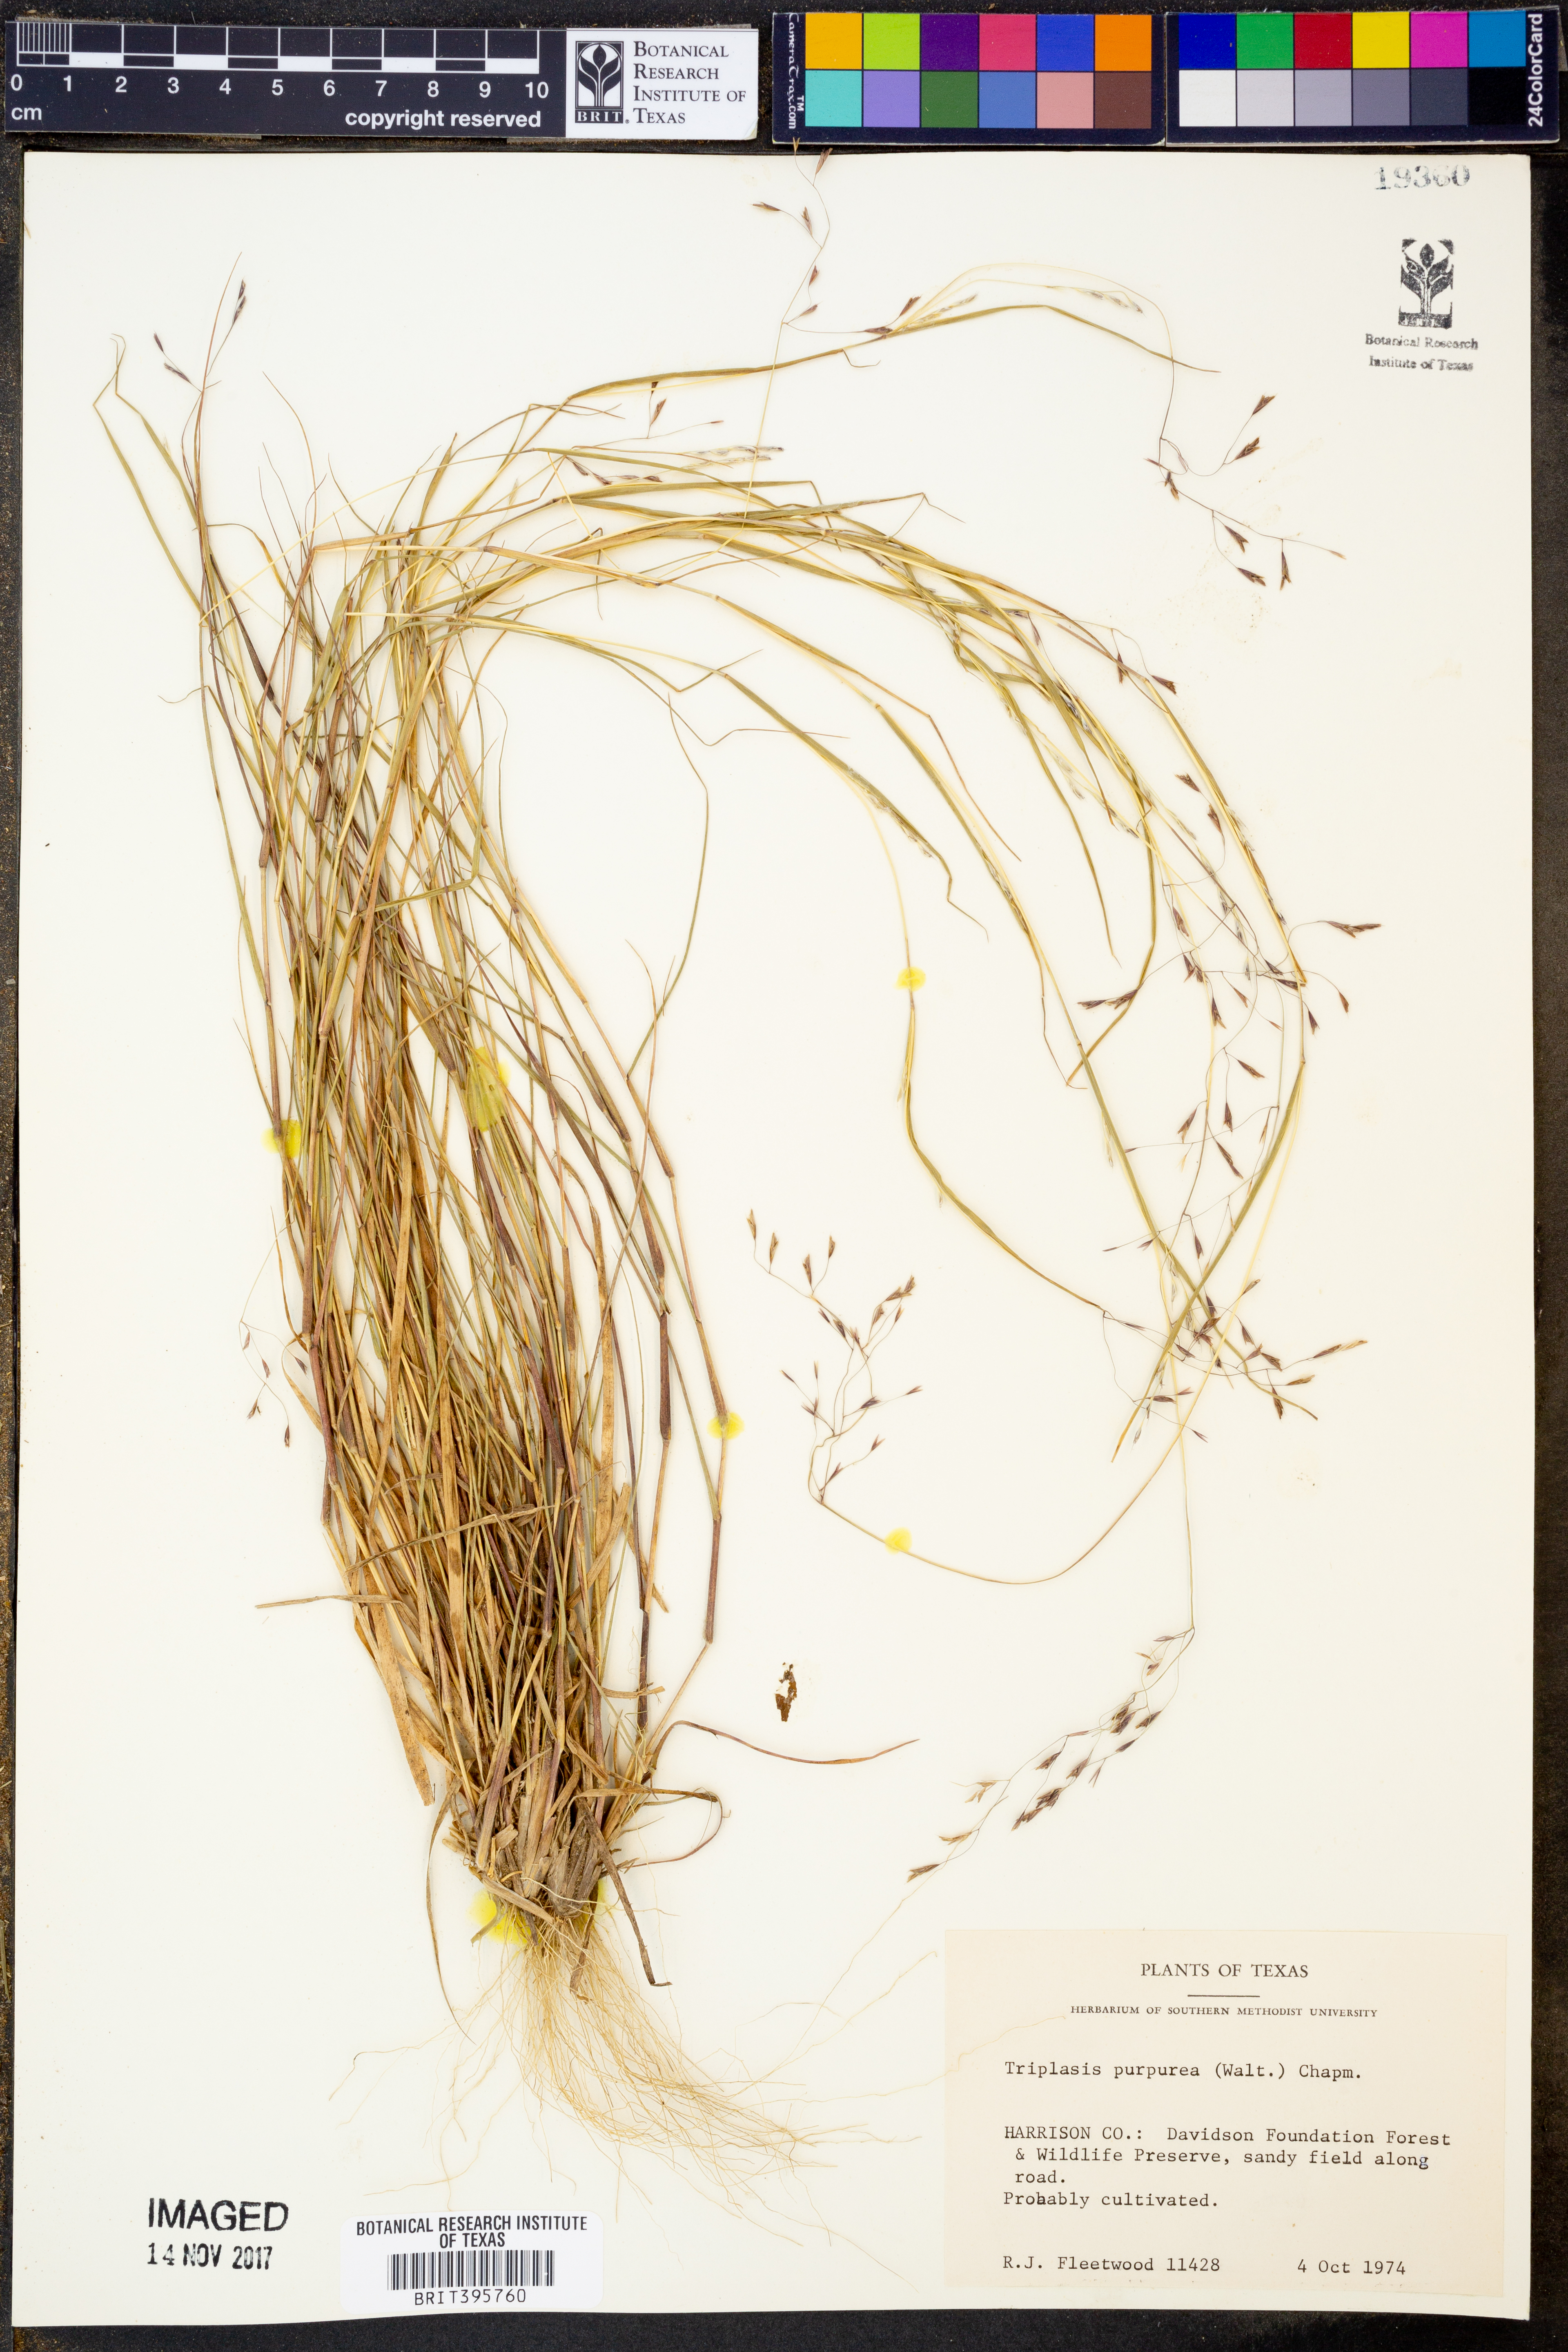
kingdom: Plantae
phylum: Tracheophyta
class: Liliopsida
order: Poales
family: Poaceae
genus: Triplasis
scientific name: Triplasis purpurea
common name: Purple sand grass
